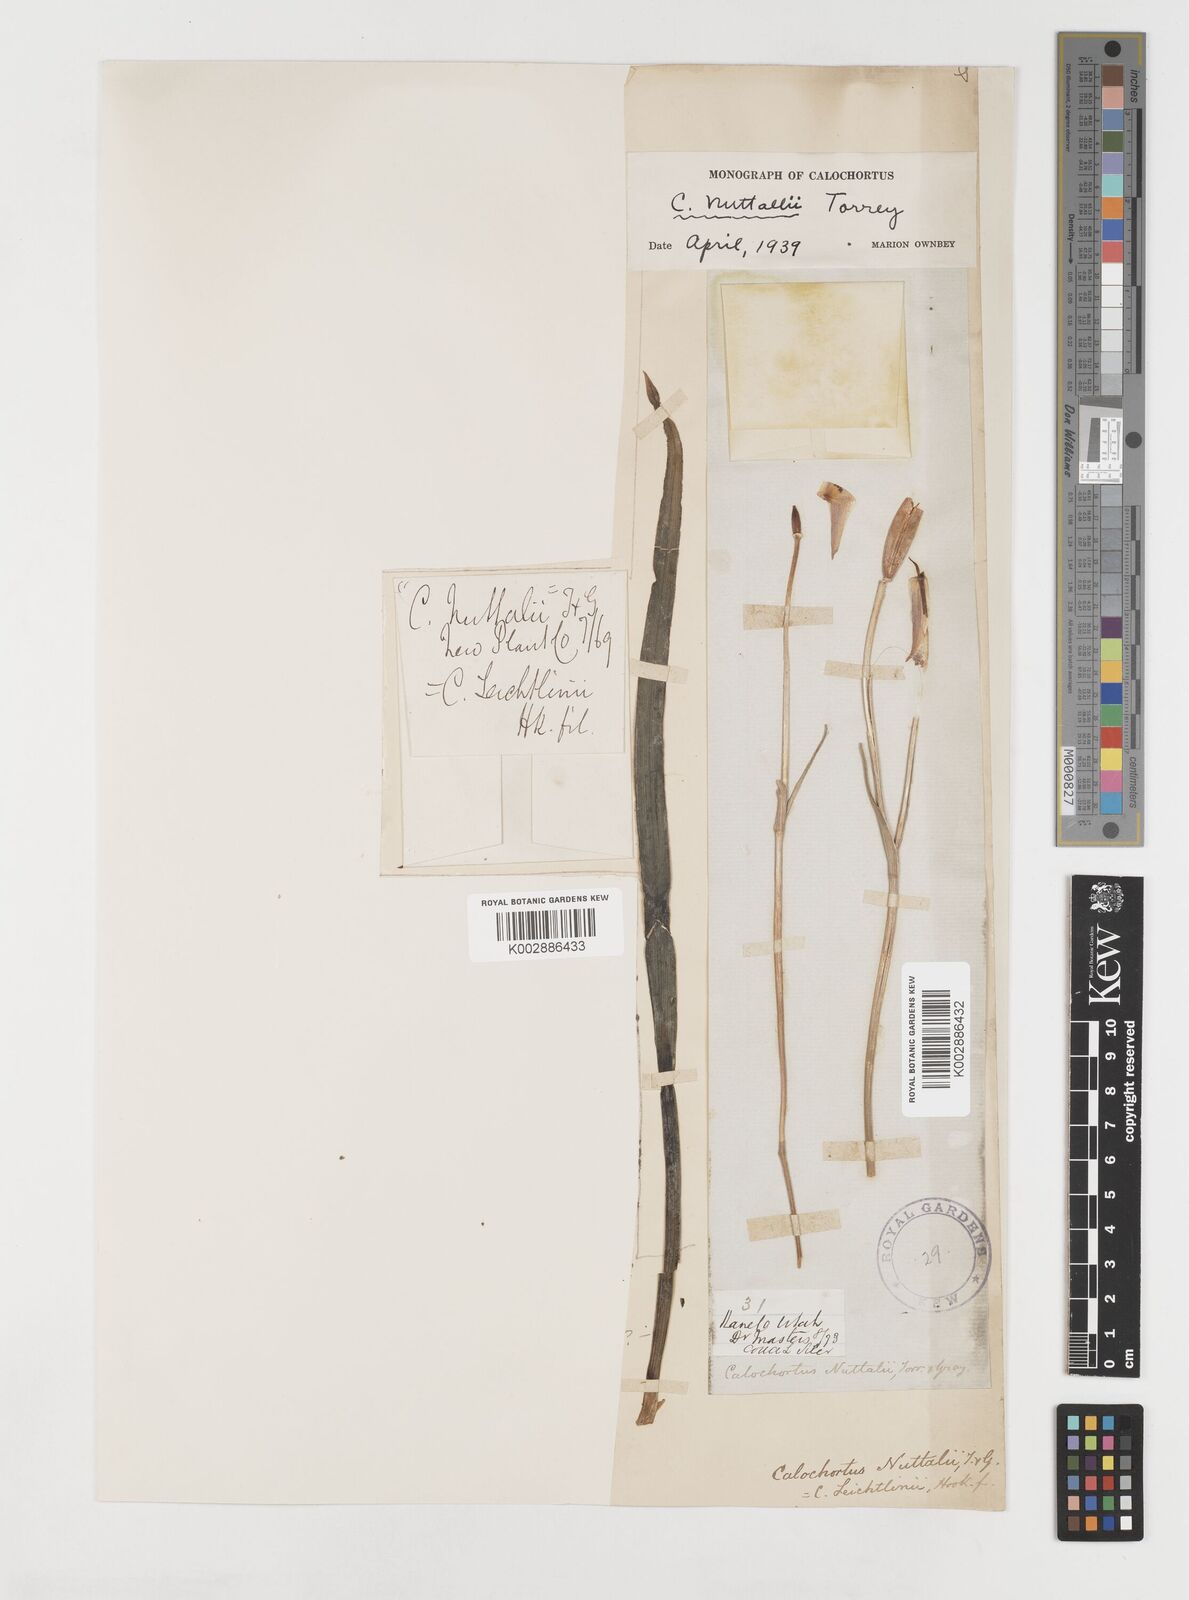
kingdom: Plantae
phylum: Tracheophyta
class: Liliopsida
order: Liliales
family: Liliaceae
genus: Calochortus
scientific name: Calochortus nuttallii
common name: Sego-lily
